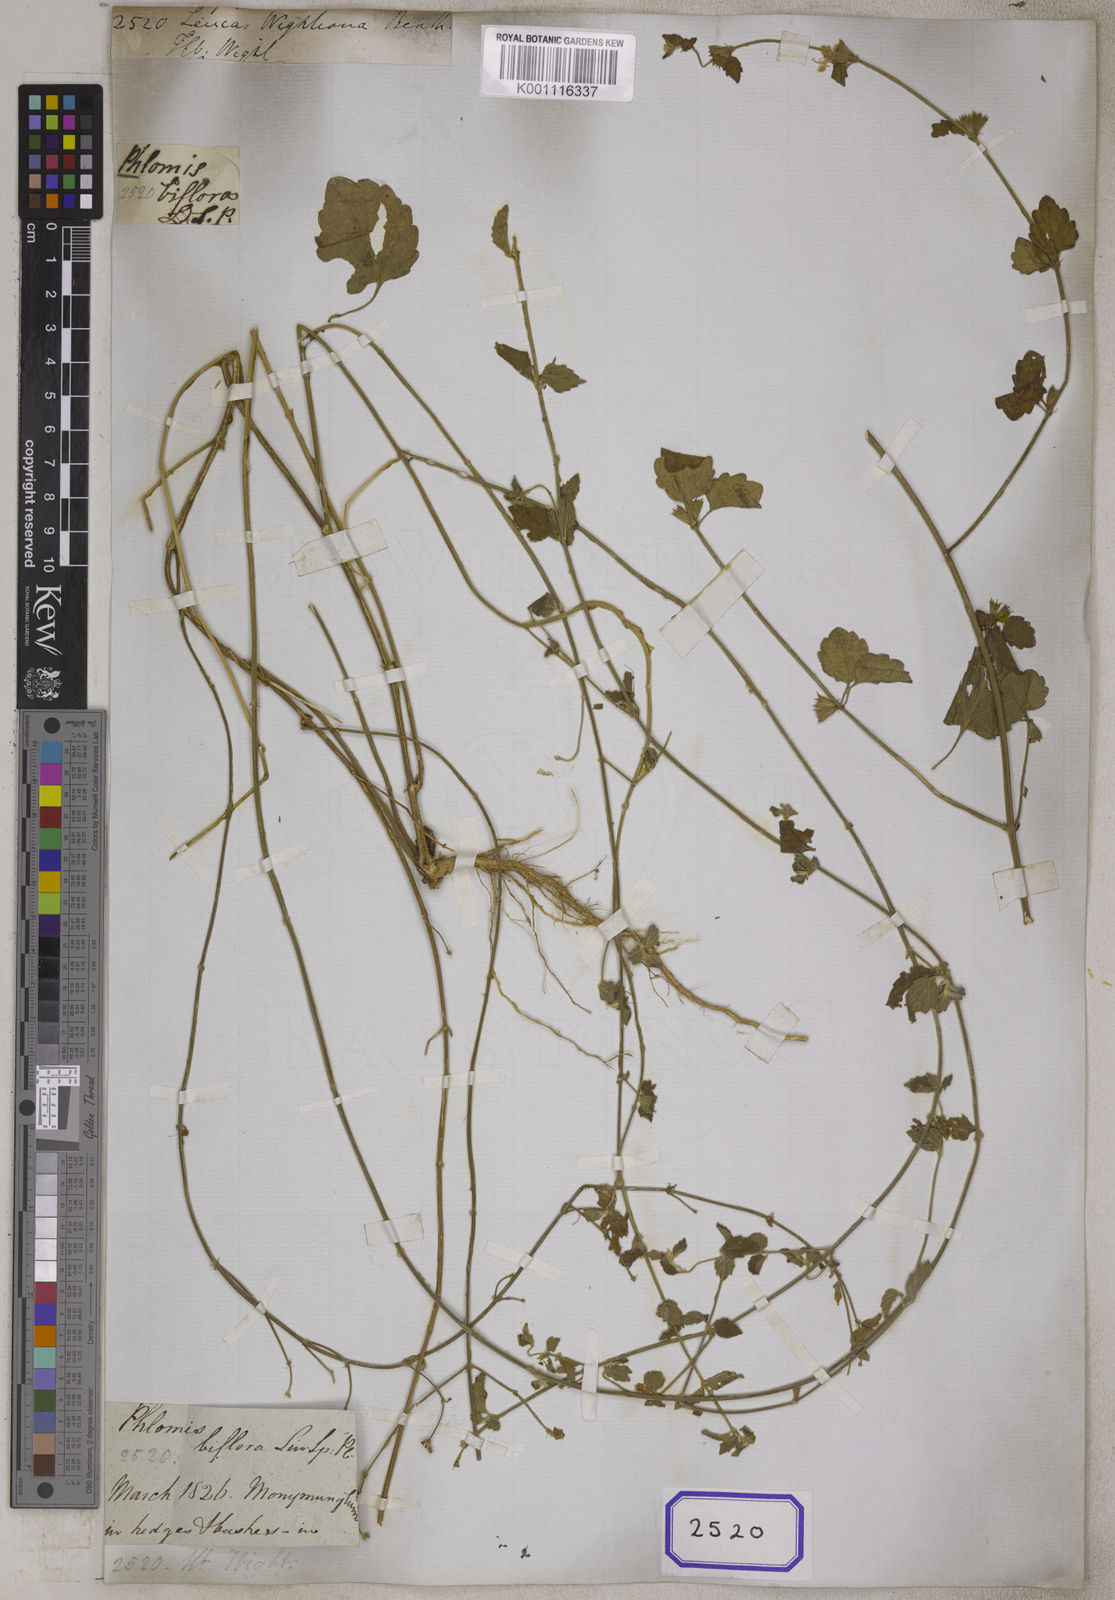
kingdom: Plantae
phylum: Tracheophyta
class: Magnoliopsida
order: Lamiales
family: Lamiaceae
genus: Leucas
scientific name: Leucas wightiana
